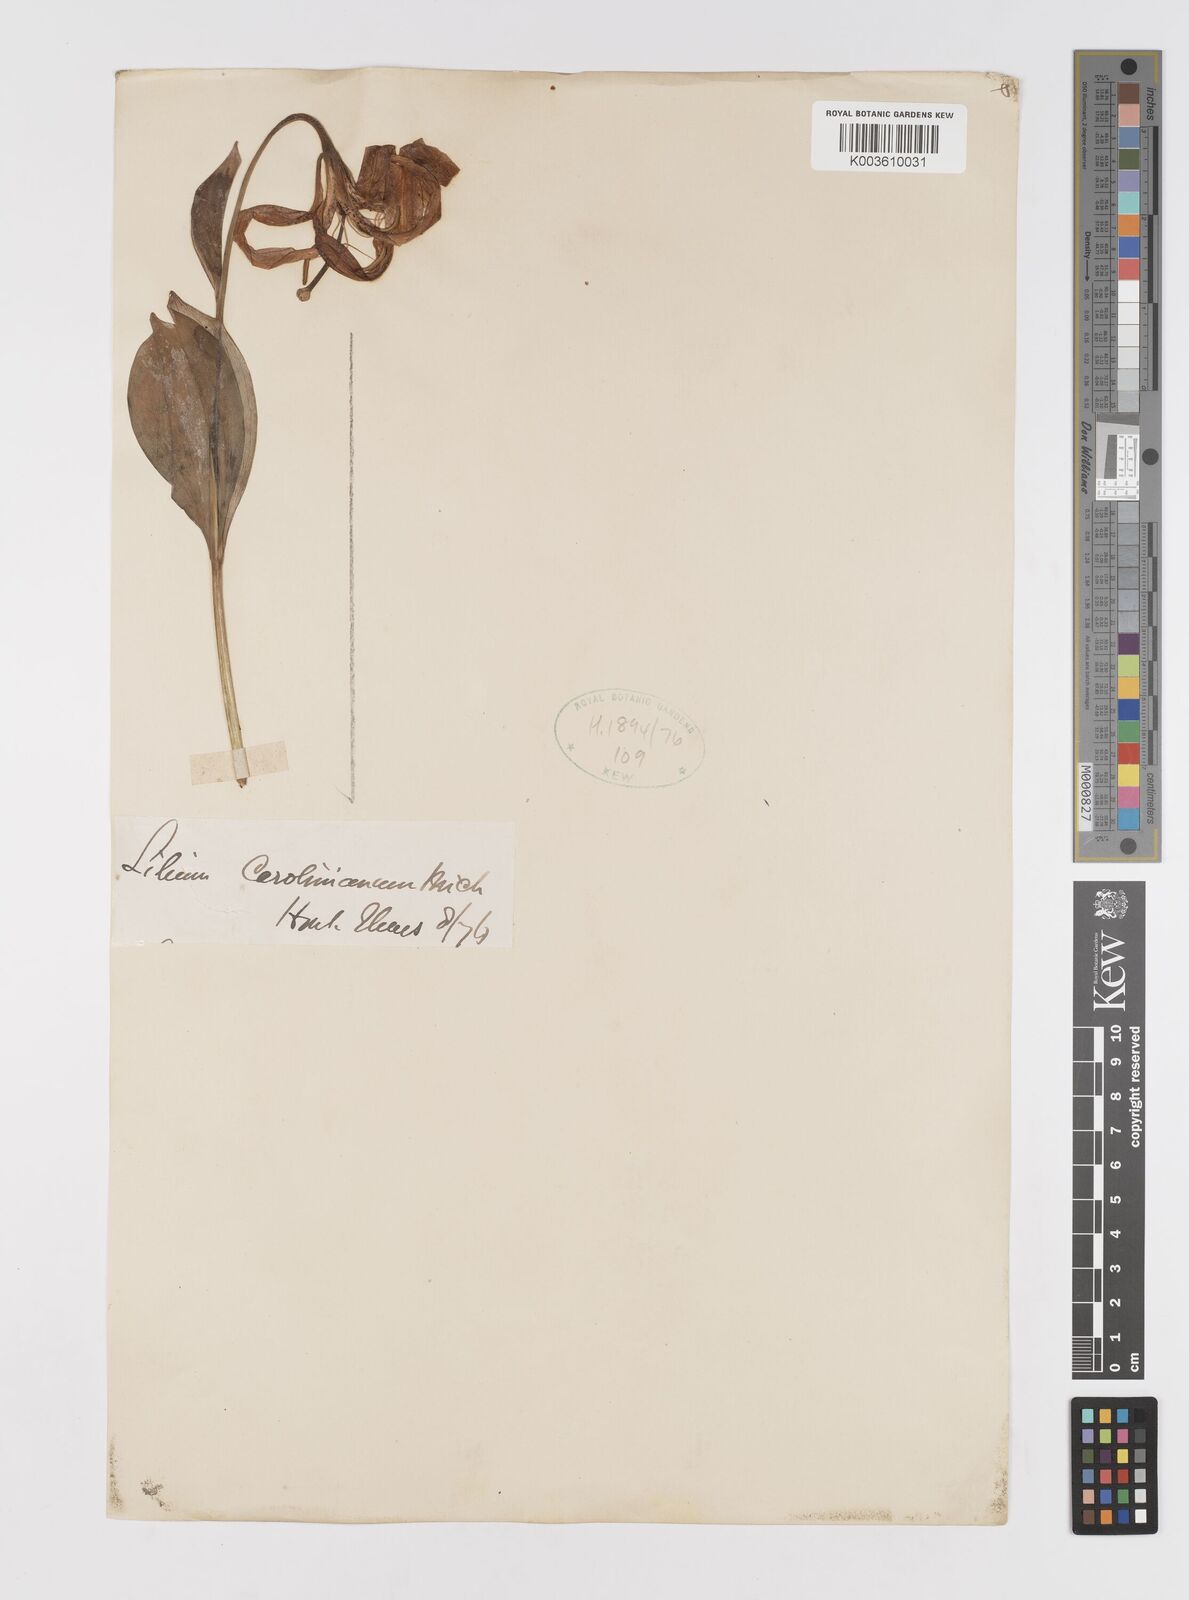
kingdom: Plantae
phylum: Tracheophyta
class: Liliopsida
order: Liliales
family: Liliaceae
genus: Lilium
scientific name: Lilium michauxii
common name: Carolina lily
